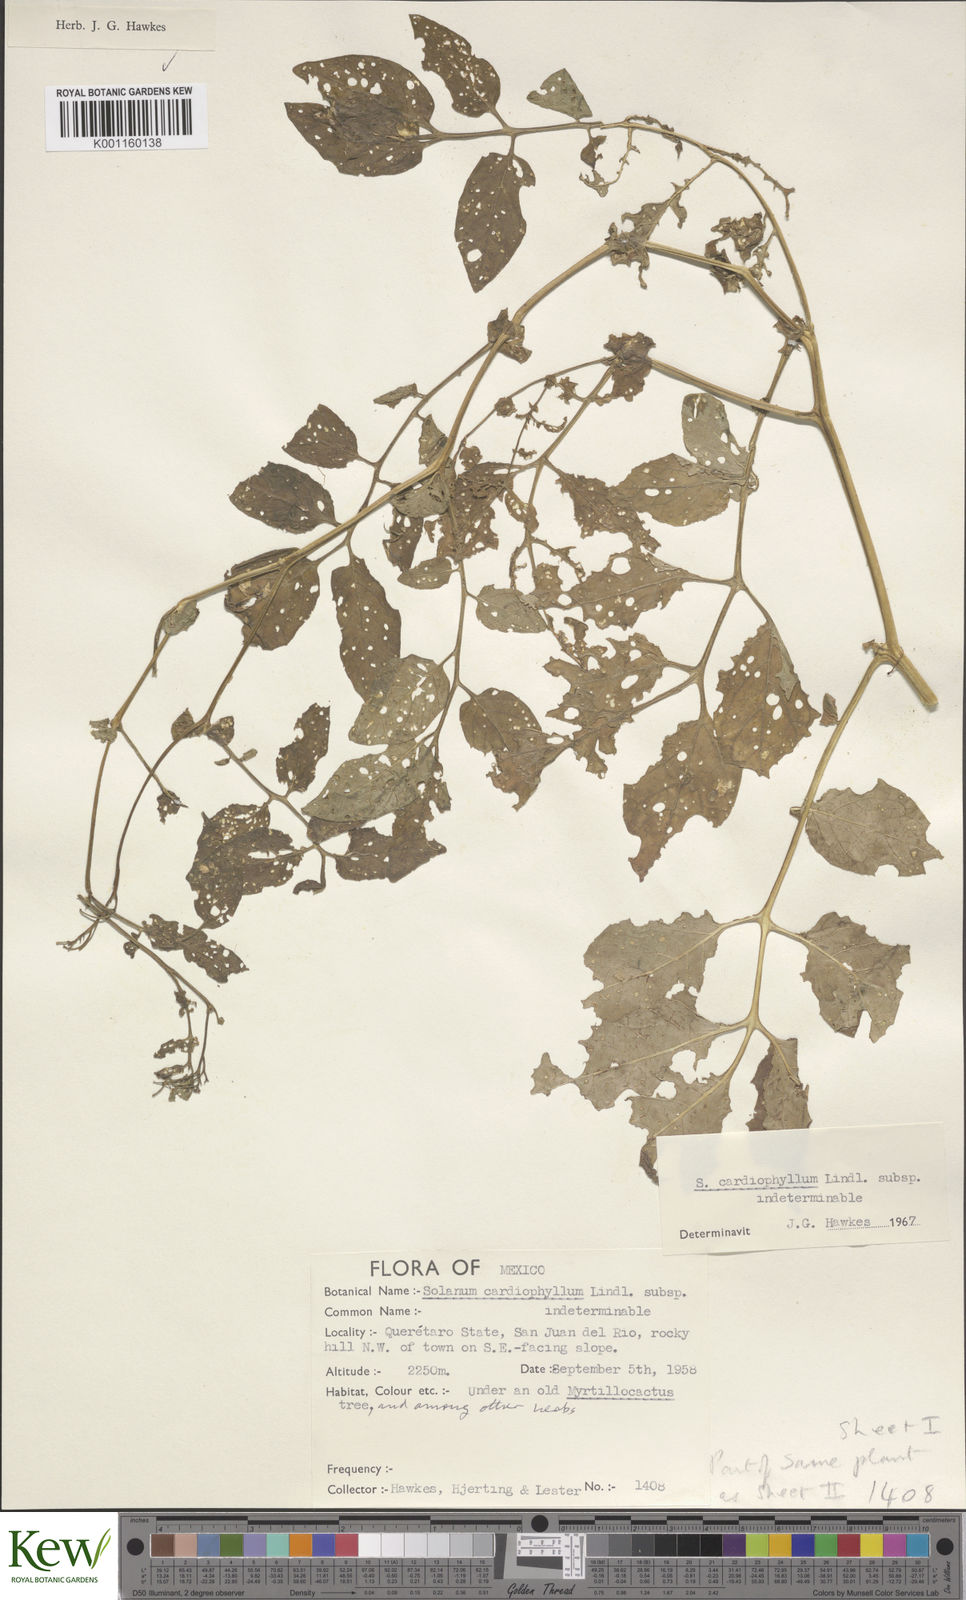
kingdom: Plantae
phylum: Tracheophyta
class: Magnoliopsida
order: Solanales
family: Solanaceae
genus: Solanum
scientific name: Solanum cardiophyllum
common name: Heartleaf horsenettle
